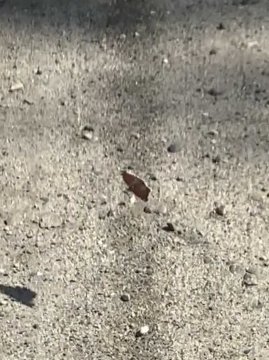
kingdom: Animalia
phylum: Arthropoda
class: Insecta
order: Lepidoptera
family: Nymphalidae
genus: Nymphalis
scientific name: Nymphalis antiopa
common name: Mourning Cloak
